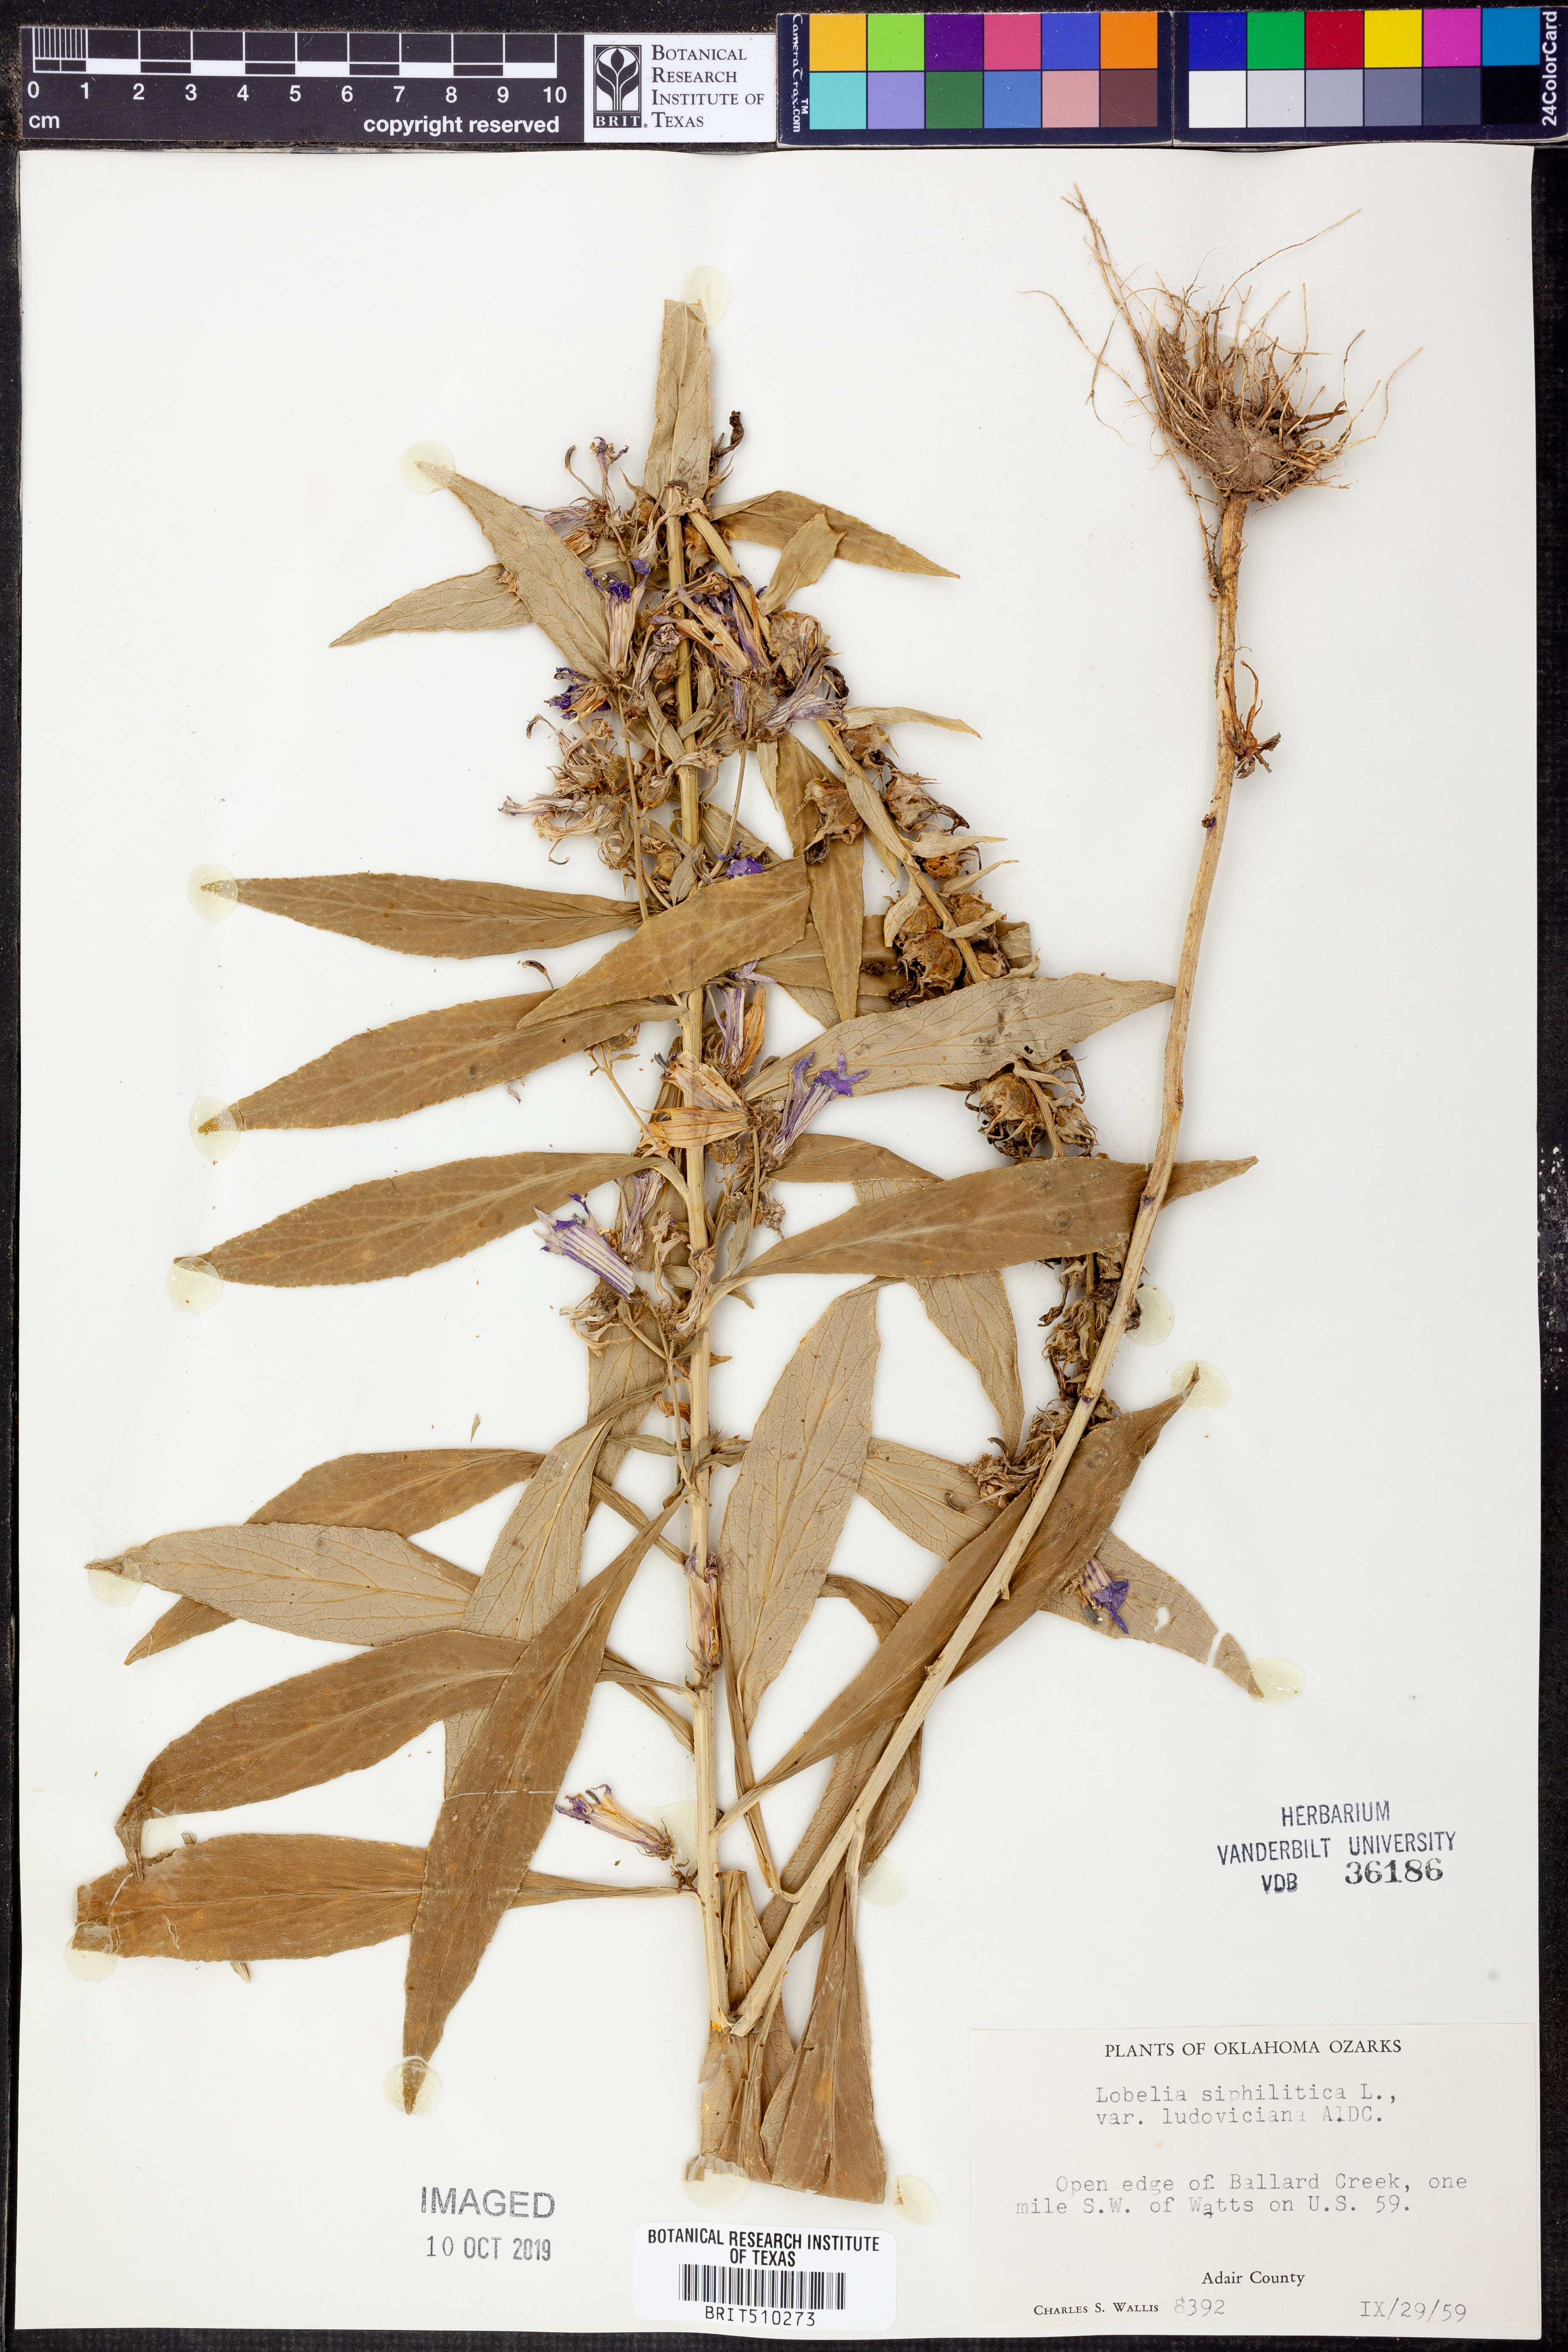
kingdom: Plantae
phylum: Tracheophyta
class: Magnoliopsida
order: Asterales
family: Campanulaceae
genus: Lobelia
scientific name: Lobelia siphilitica
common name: Great lobelia
